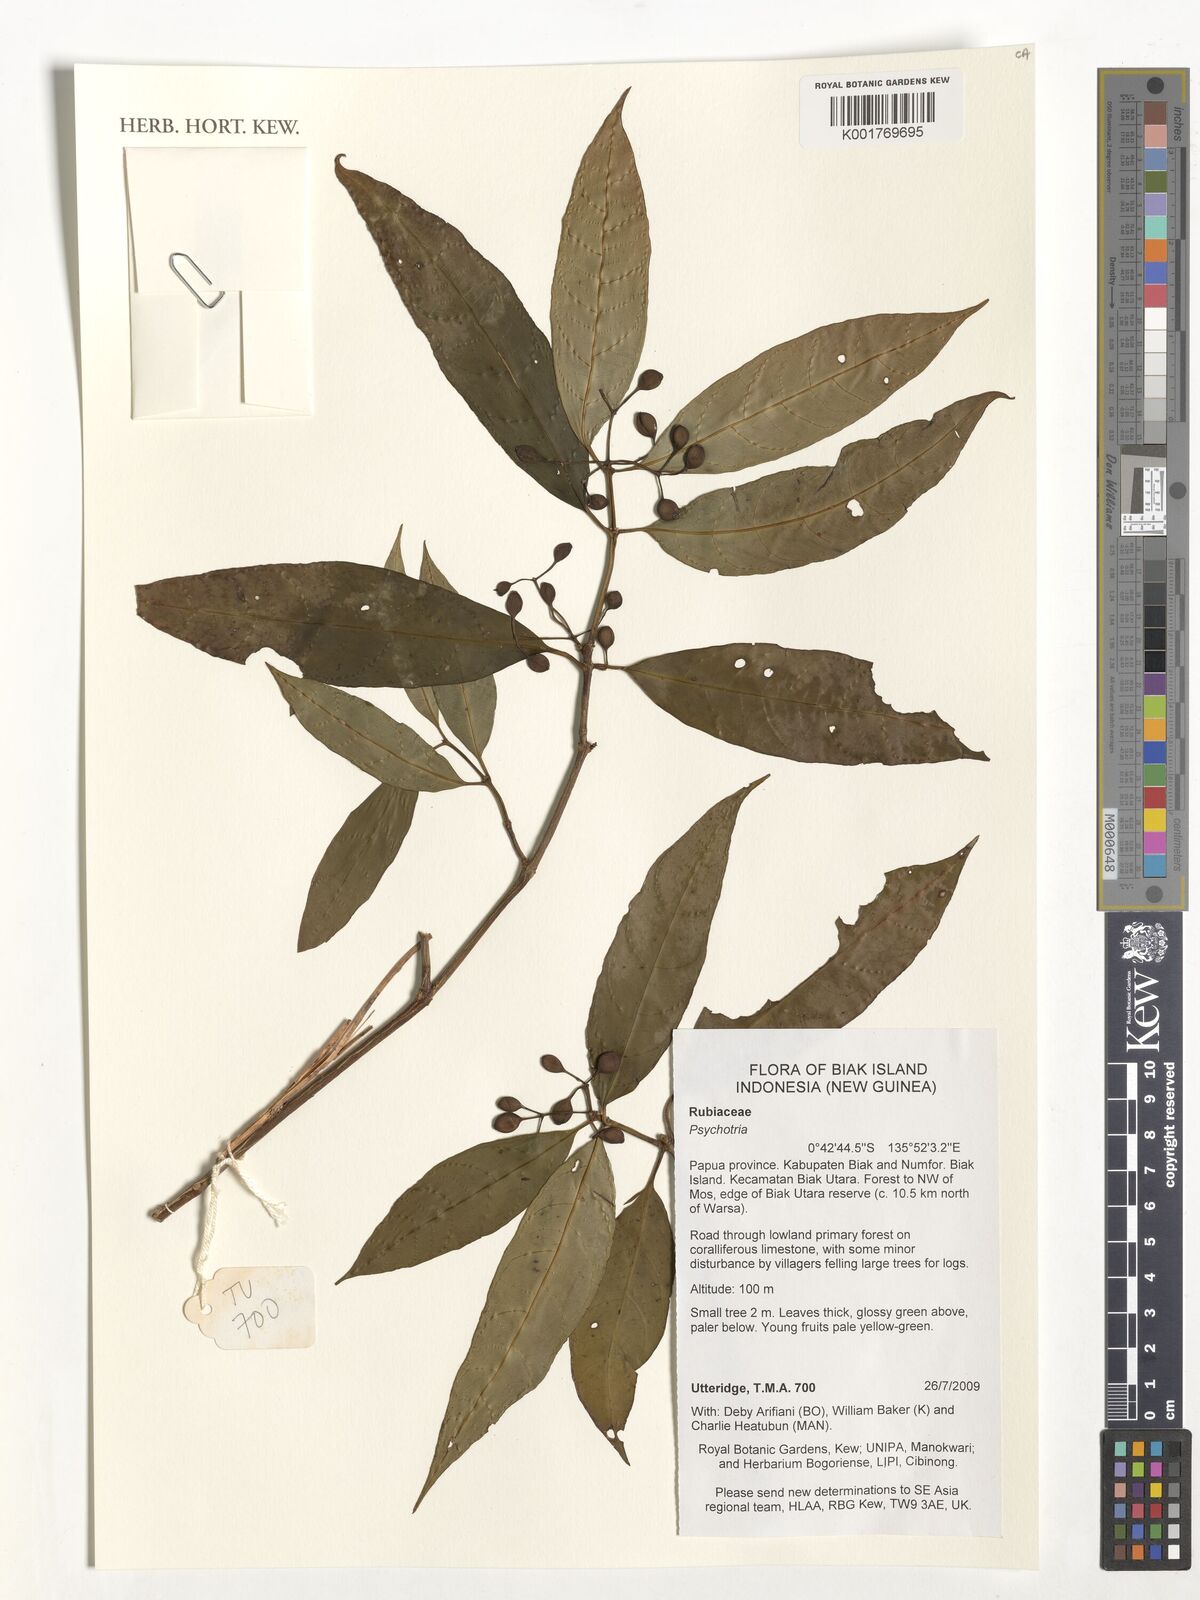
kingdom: Plantae
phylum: Tracheophyta
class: Magnoliopsida
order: Gentianales
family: Rubiaceae
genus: Psychotria
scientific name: Psychotria
